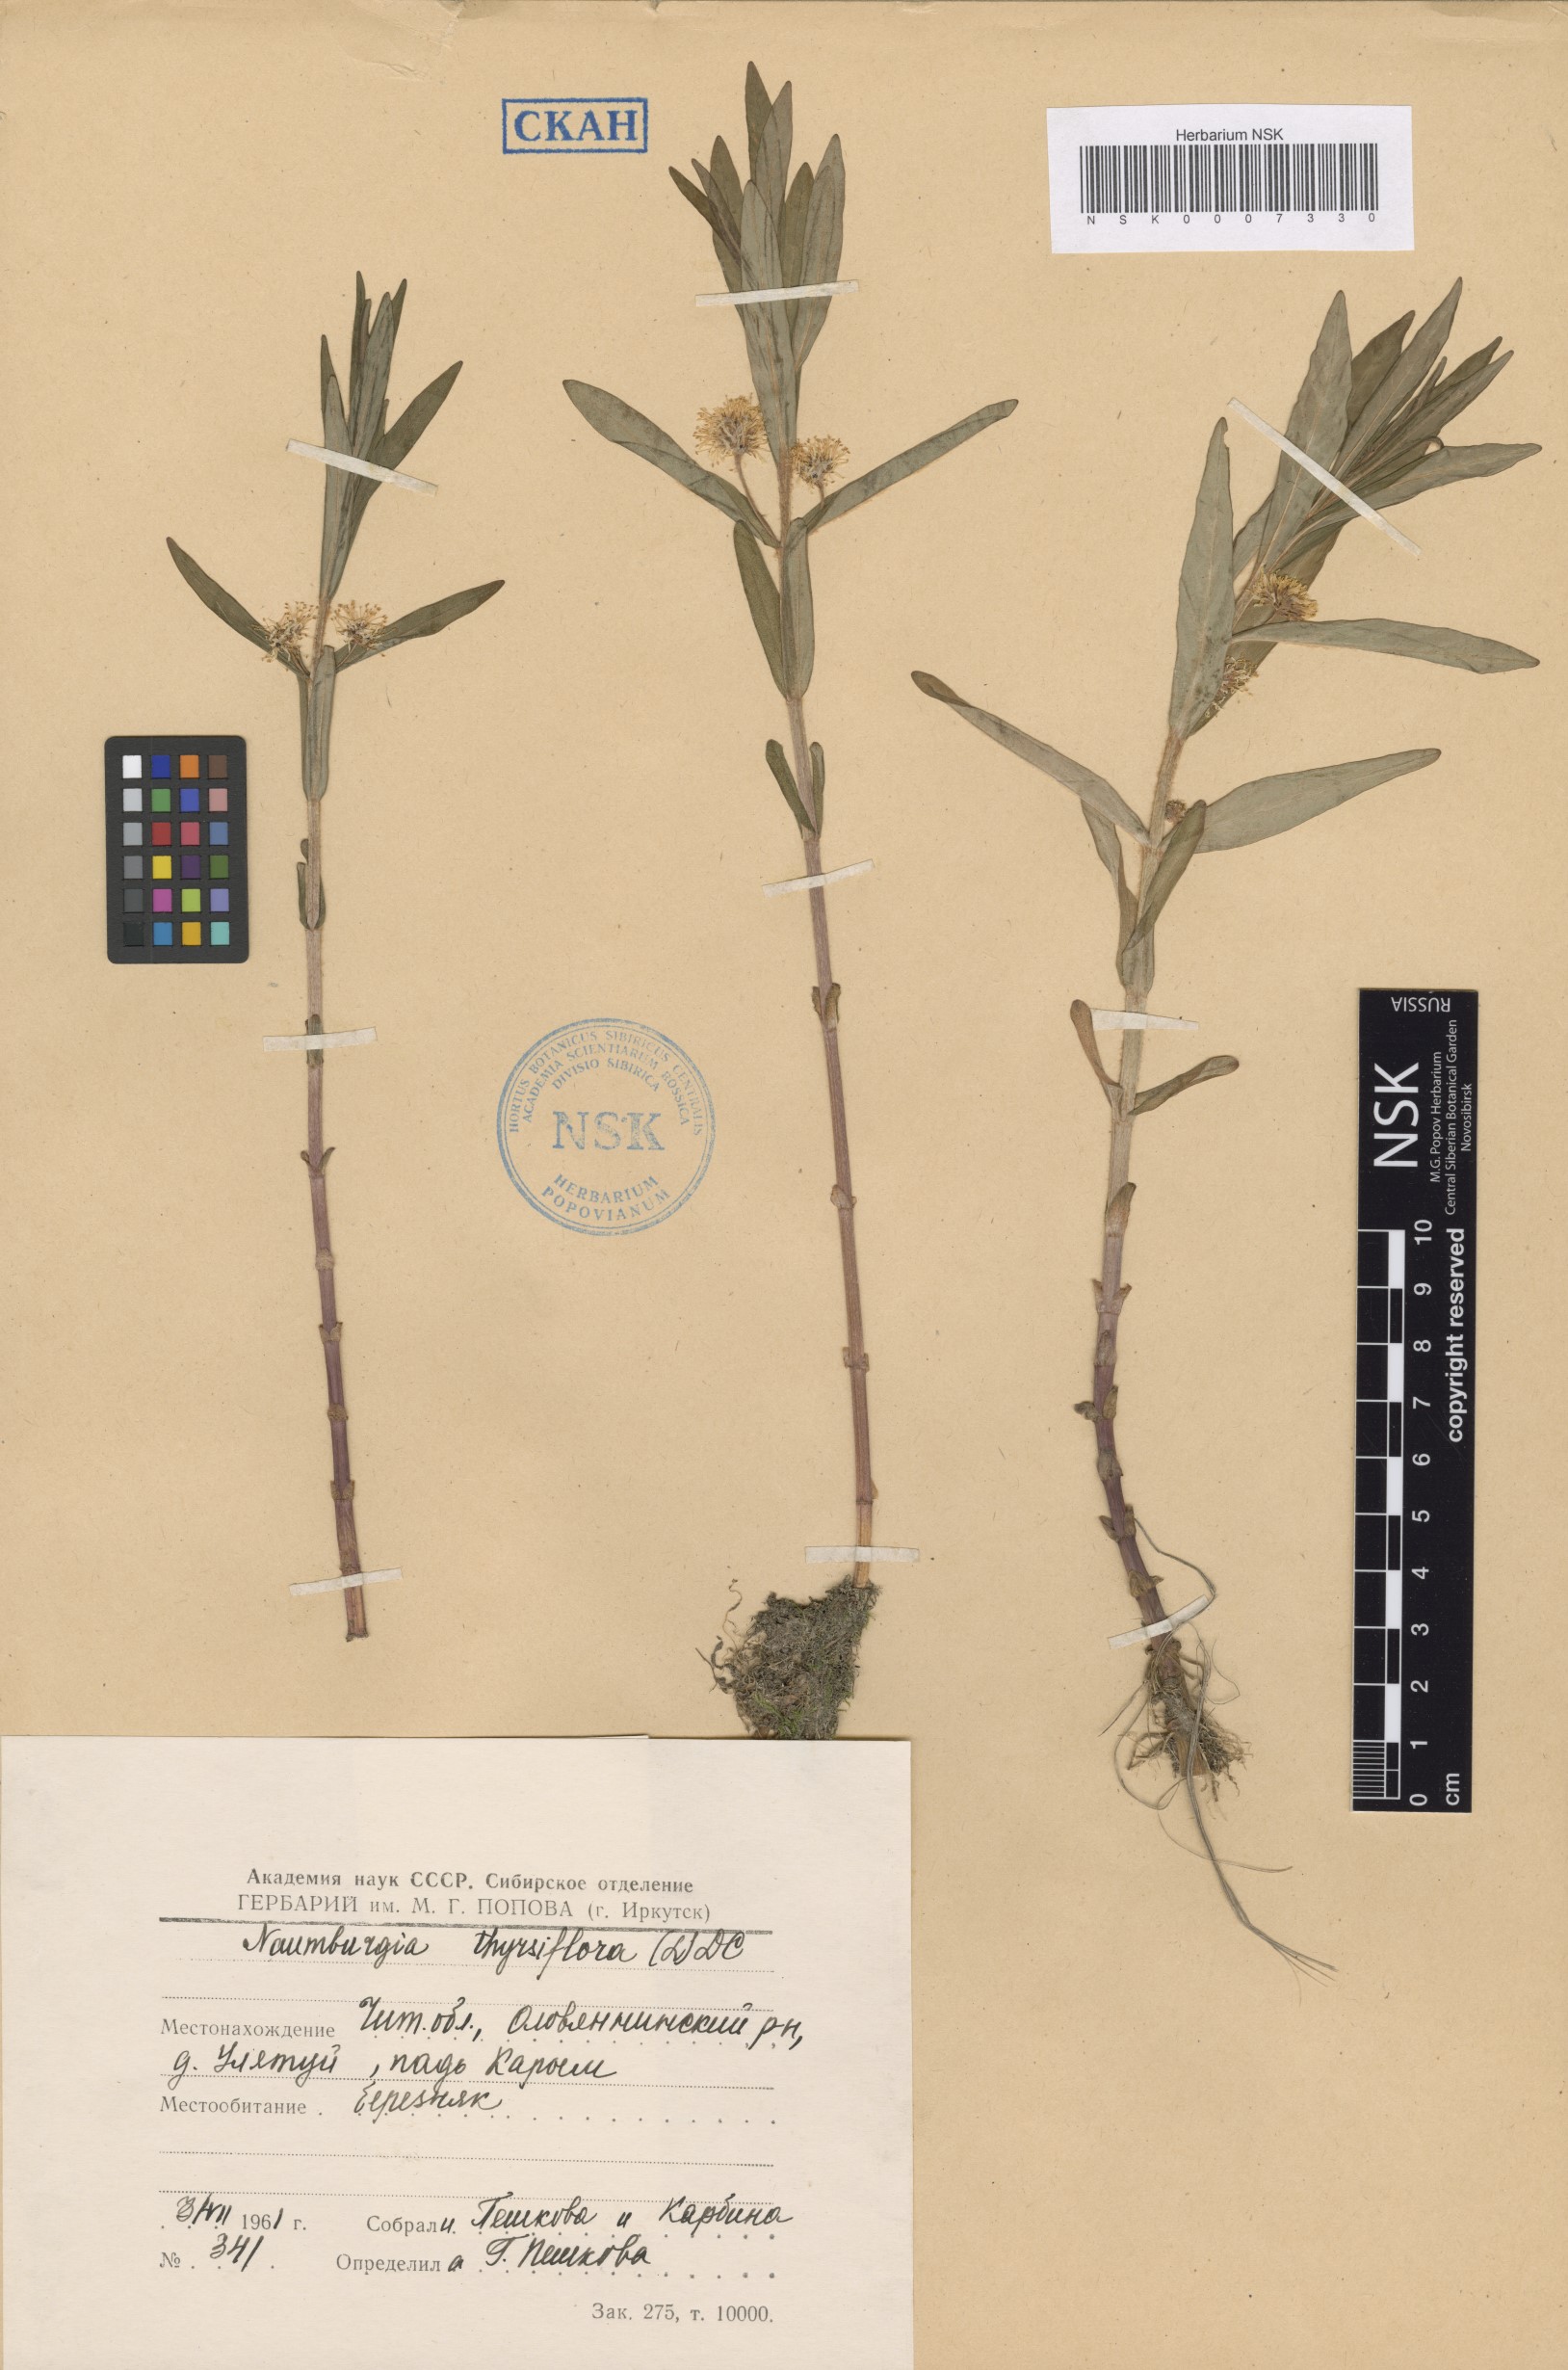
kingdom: Plantae
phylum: Tracheophyta
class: Magnoliopsida
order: Ericales
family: Primulaceae
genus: Lysimachia
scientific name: Lysimachia thyrsiflora
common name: Tufted loosestrife
